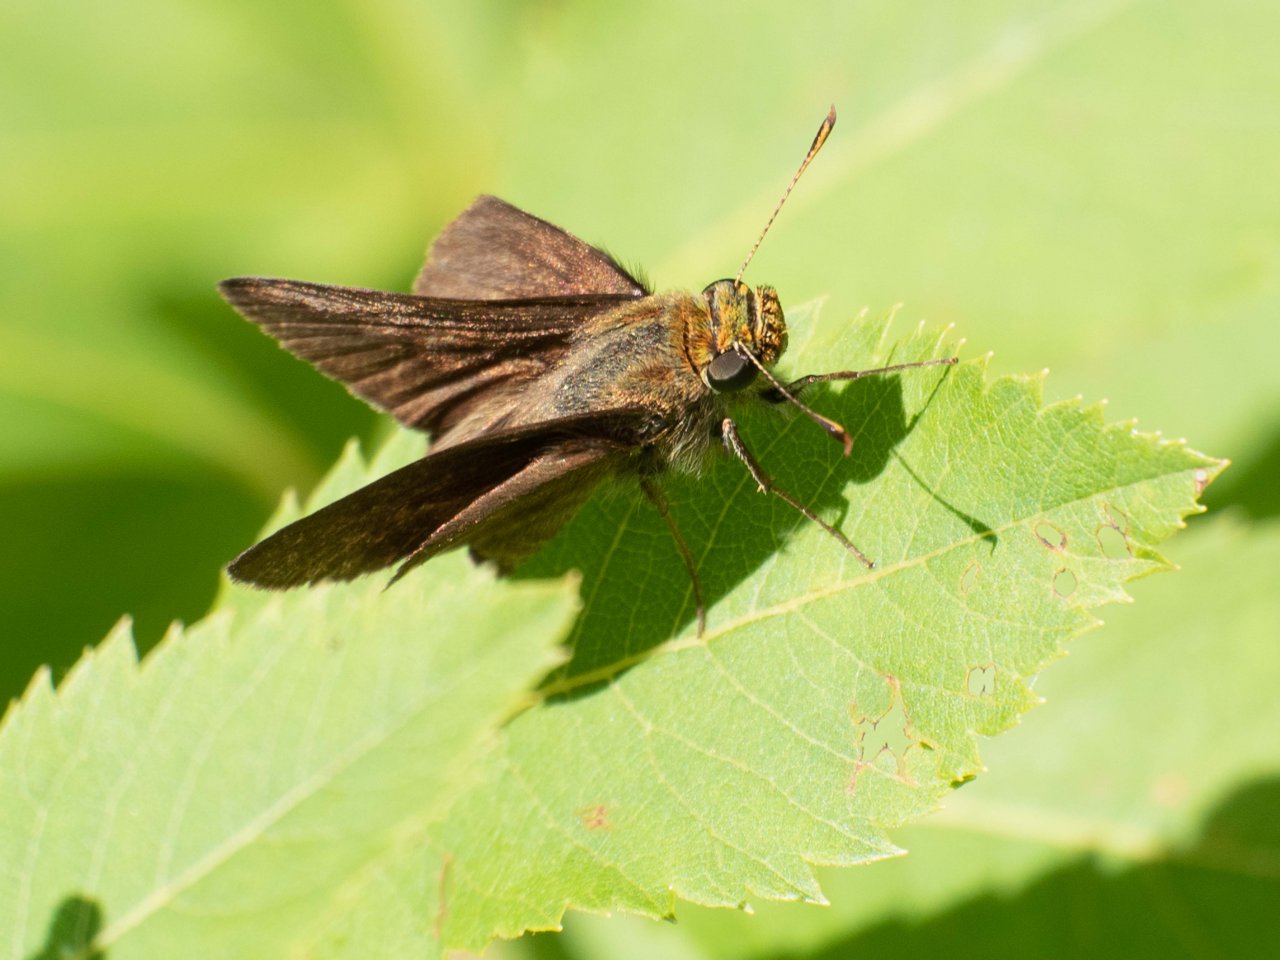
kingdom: Animalia
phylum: Arthropoda
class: Insecta
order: Lepidoptera
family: Hesperiidae
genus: Euphyes
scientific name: Euphyes vestris
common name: Dun Skipper
